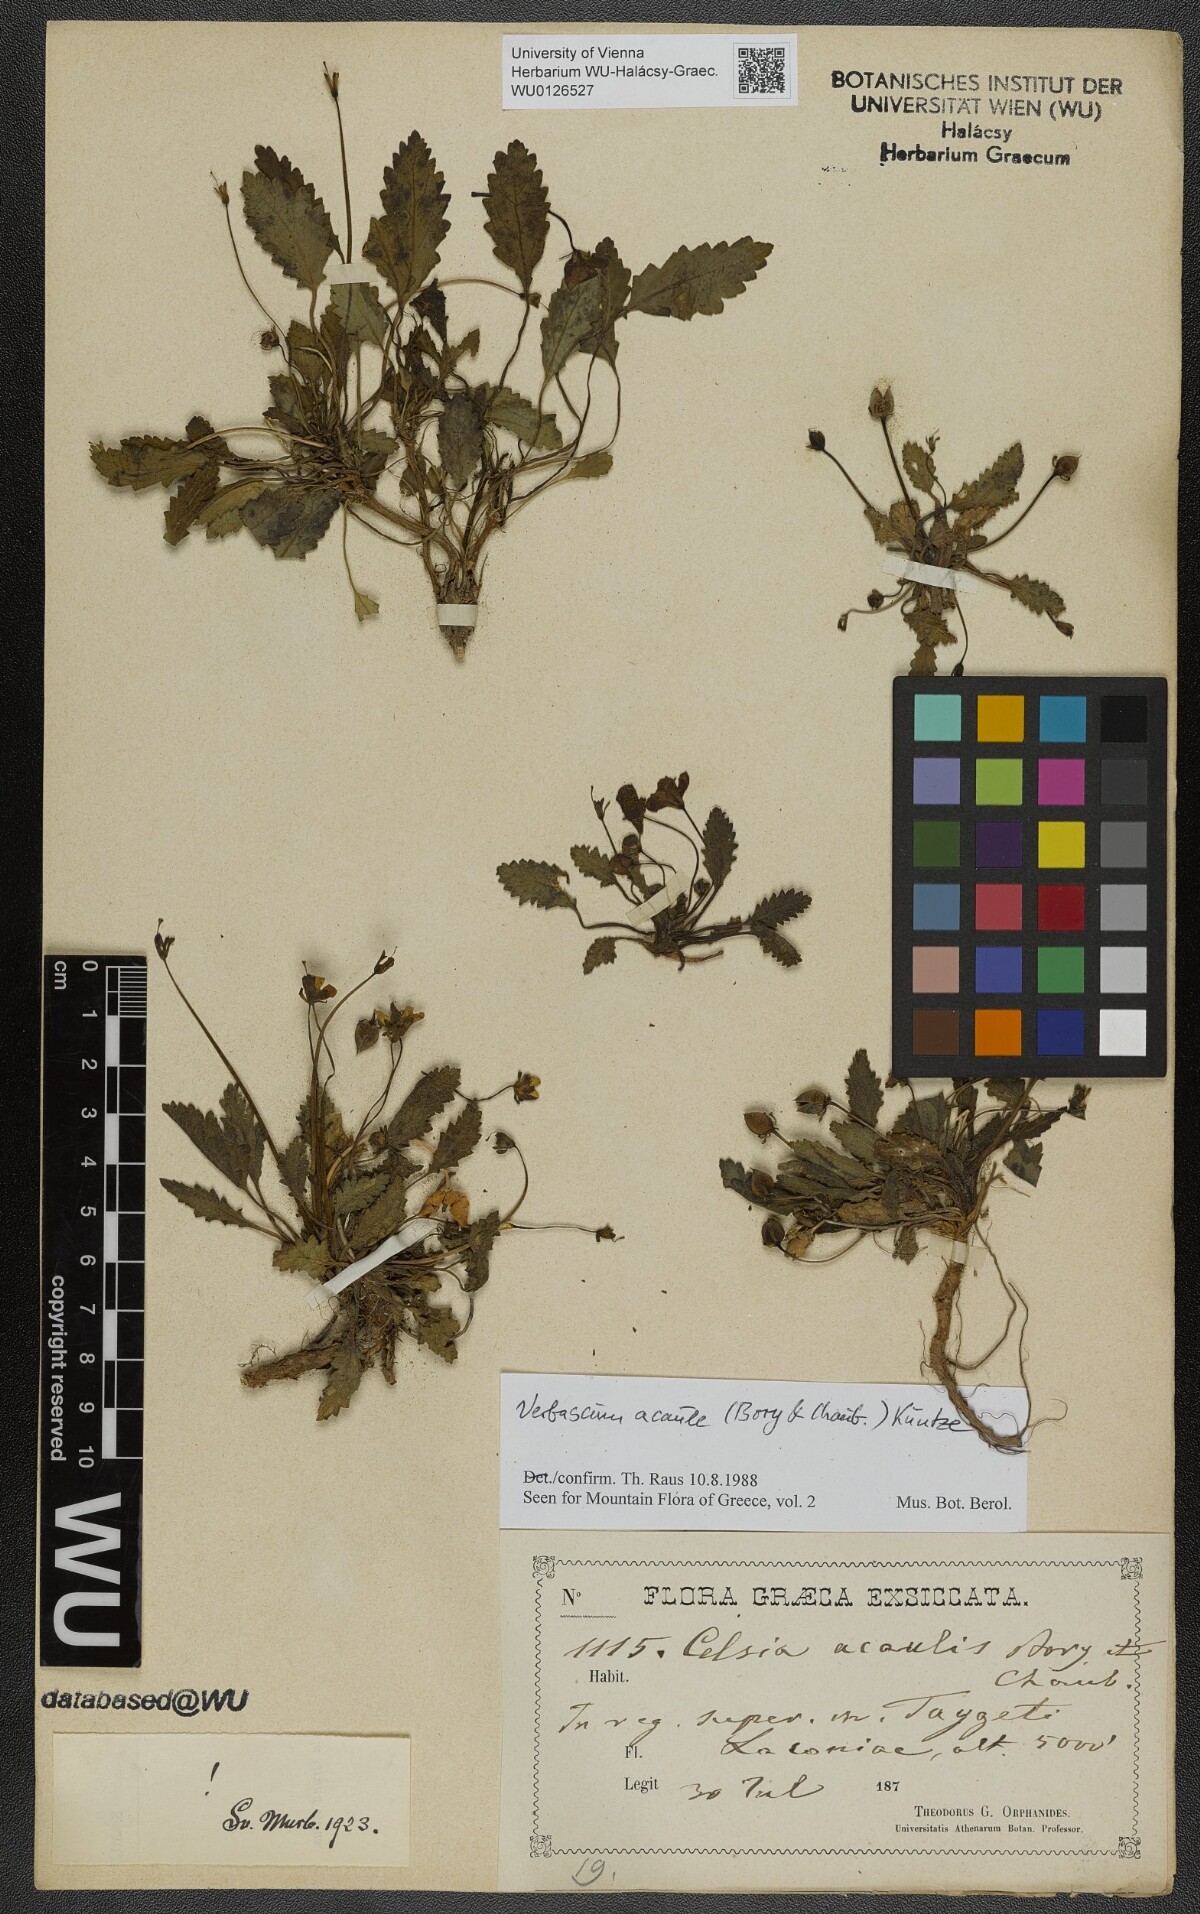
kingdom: Plantae
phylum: Tracheophyta
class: Magnoliopsida
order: Lamiales
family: Scrophulariaceae
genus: Verbascum
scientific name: Verbascum acaule
